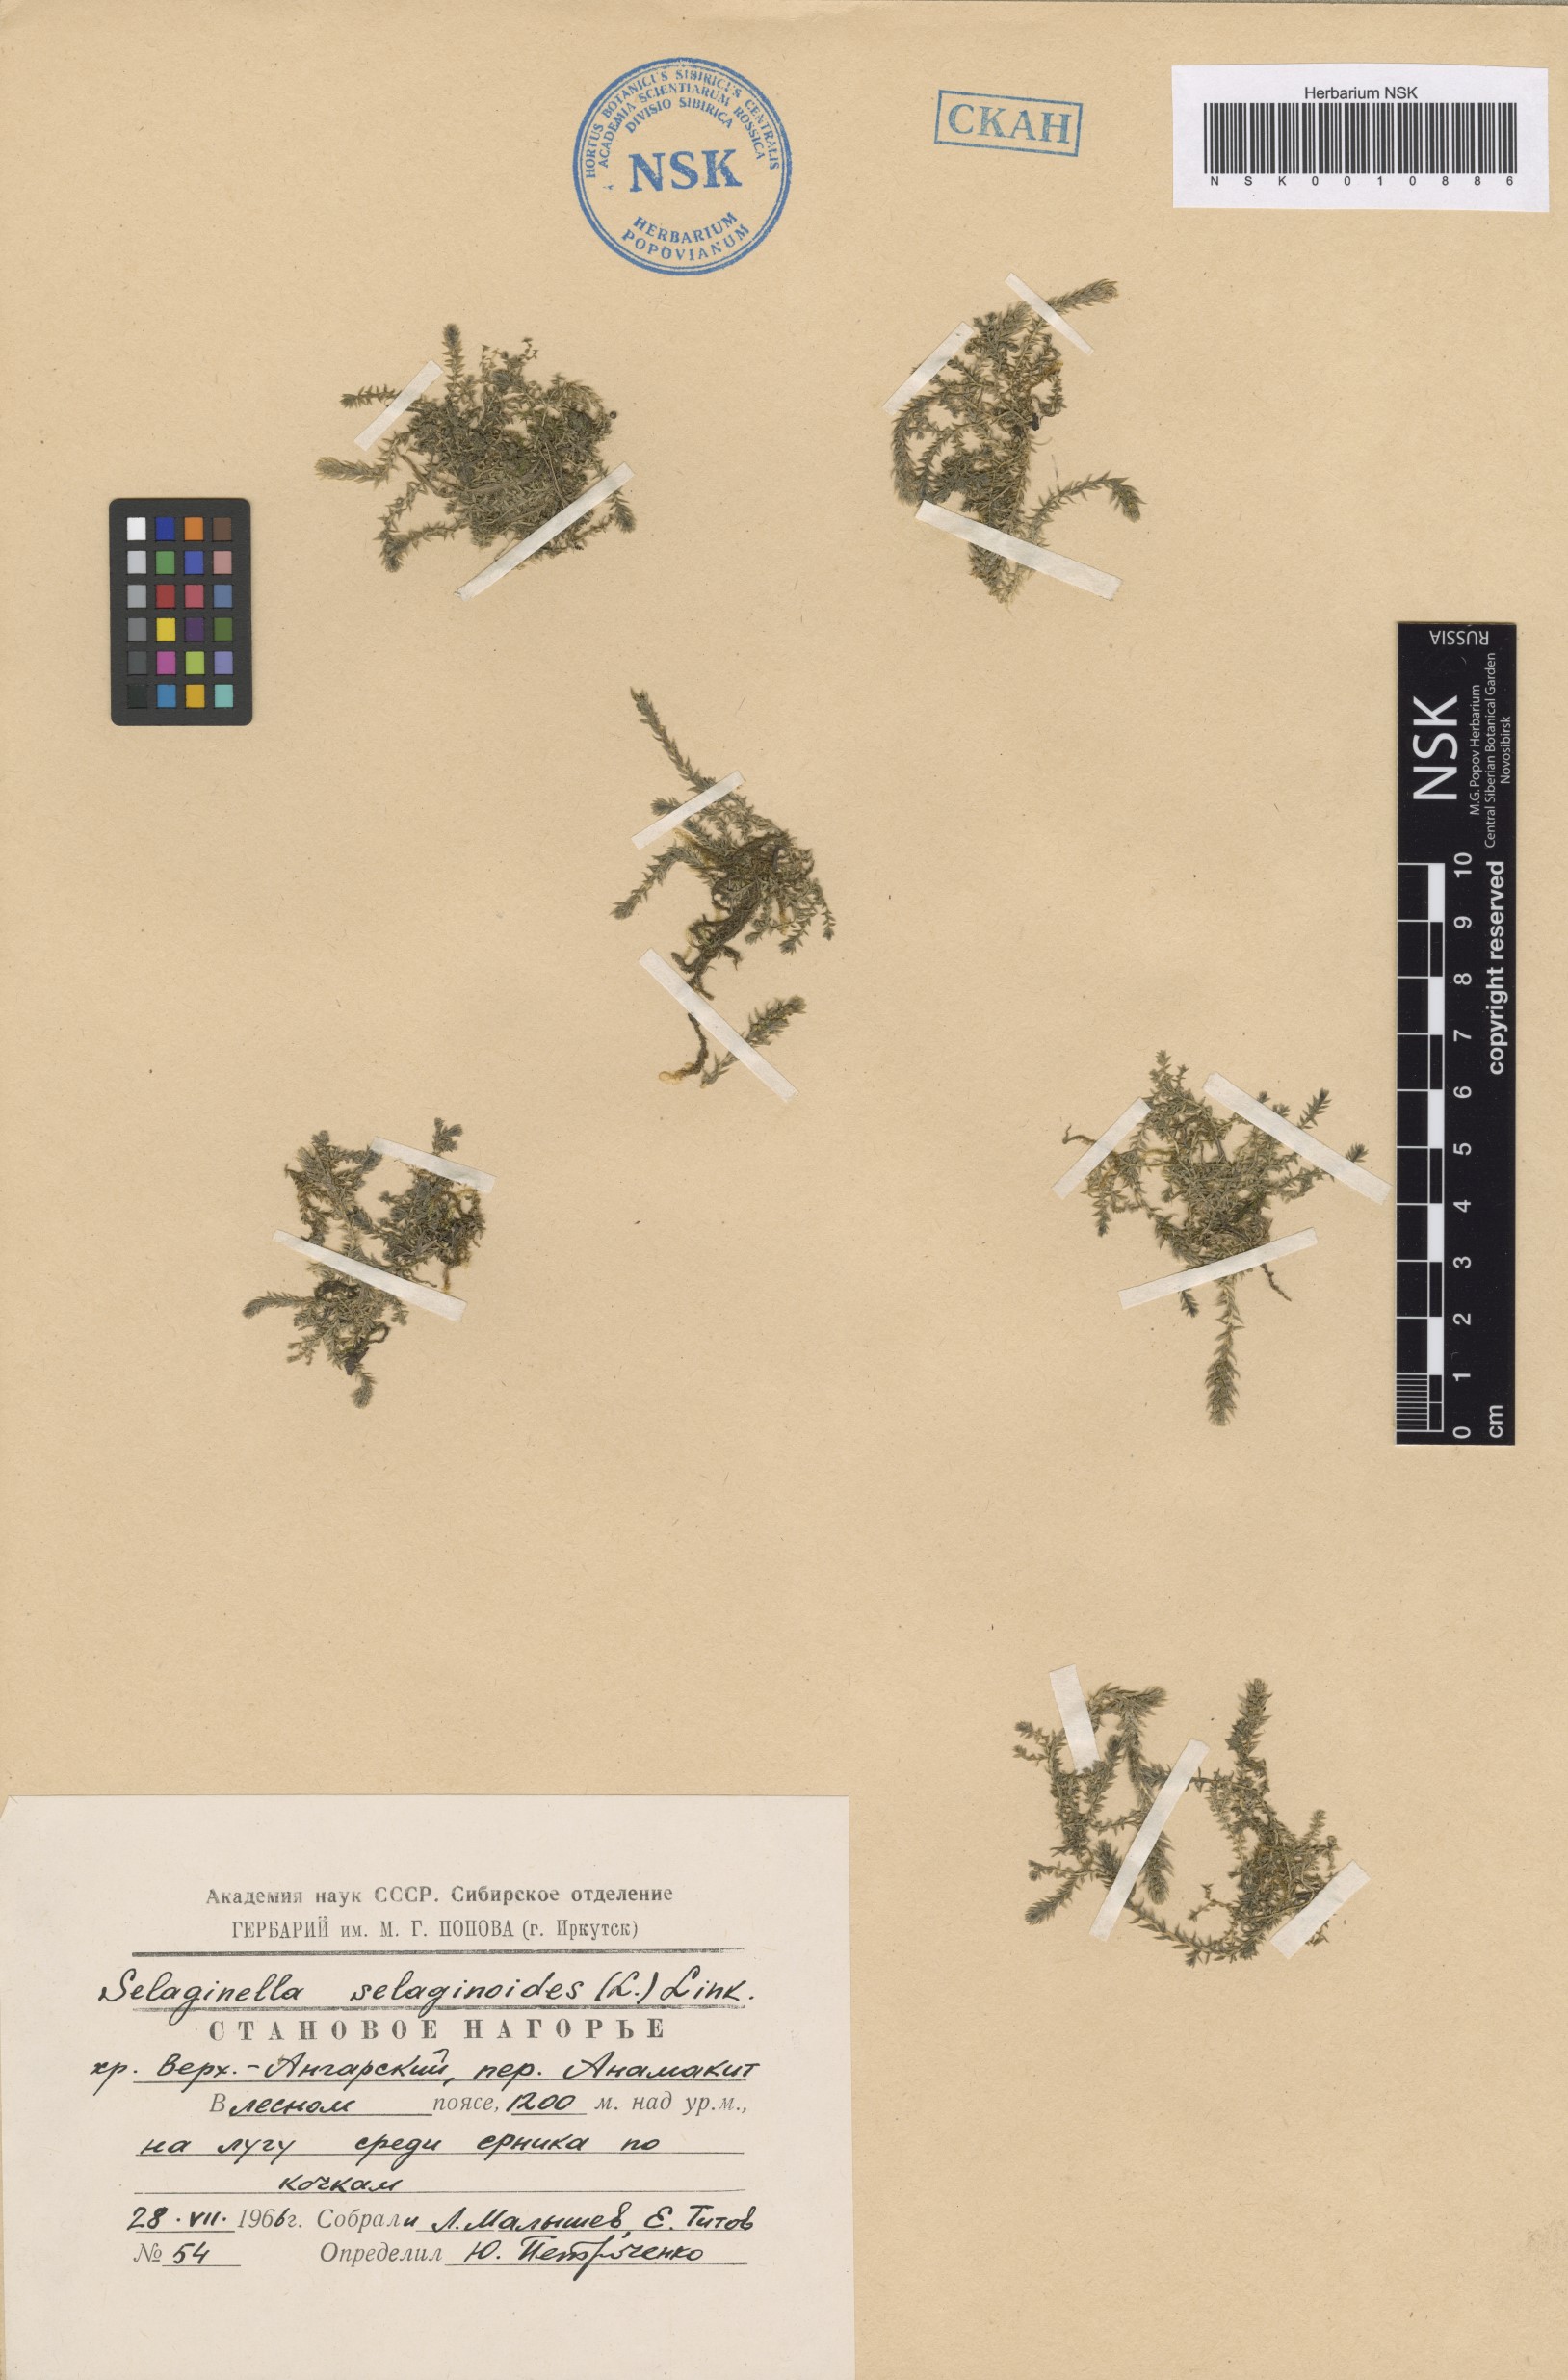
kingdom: Plantae
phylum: Tracheophyta
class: Lycopodiopsida
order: Selaginellales
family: Selaginellaceae
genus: Selaginella
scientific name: Selaginella selaginoides
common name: Prickly mountain-moss
